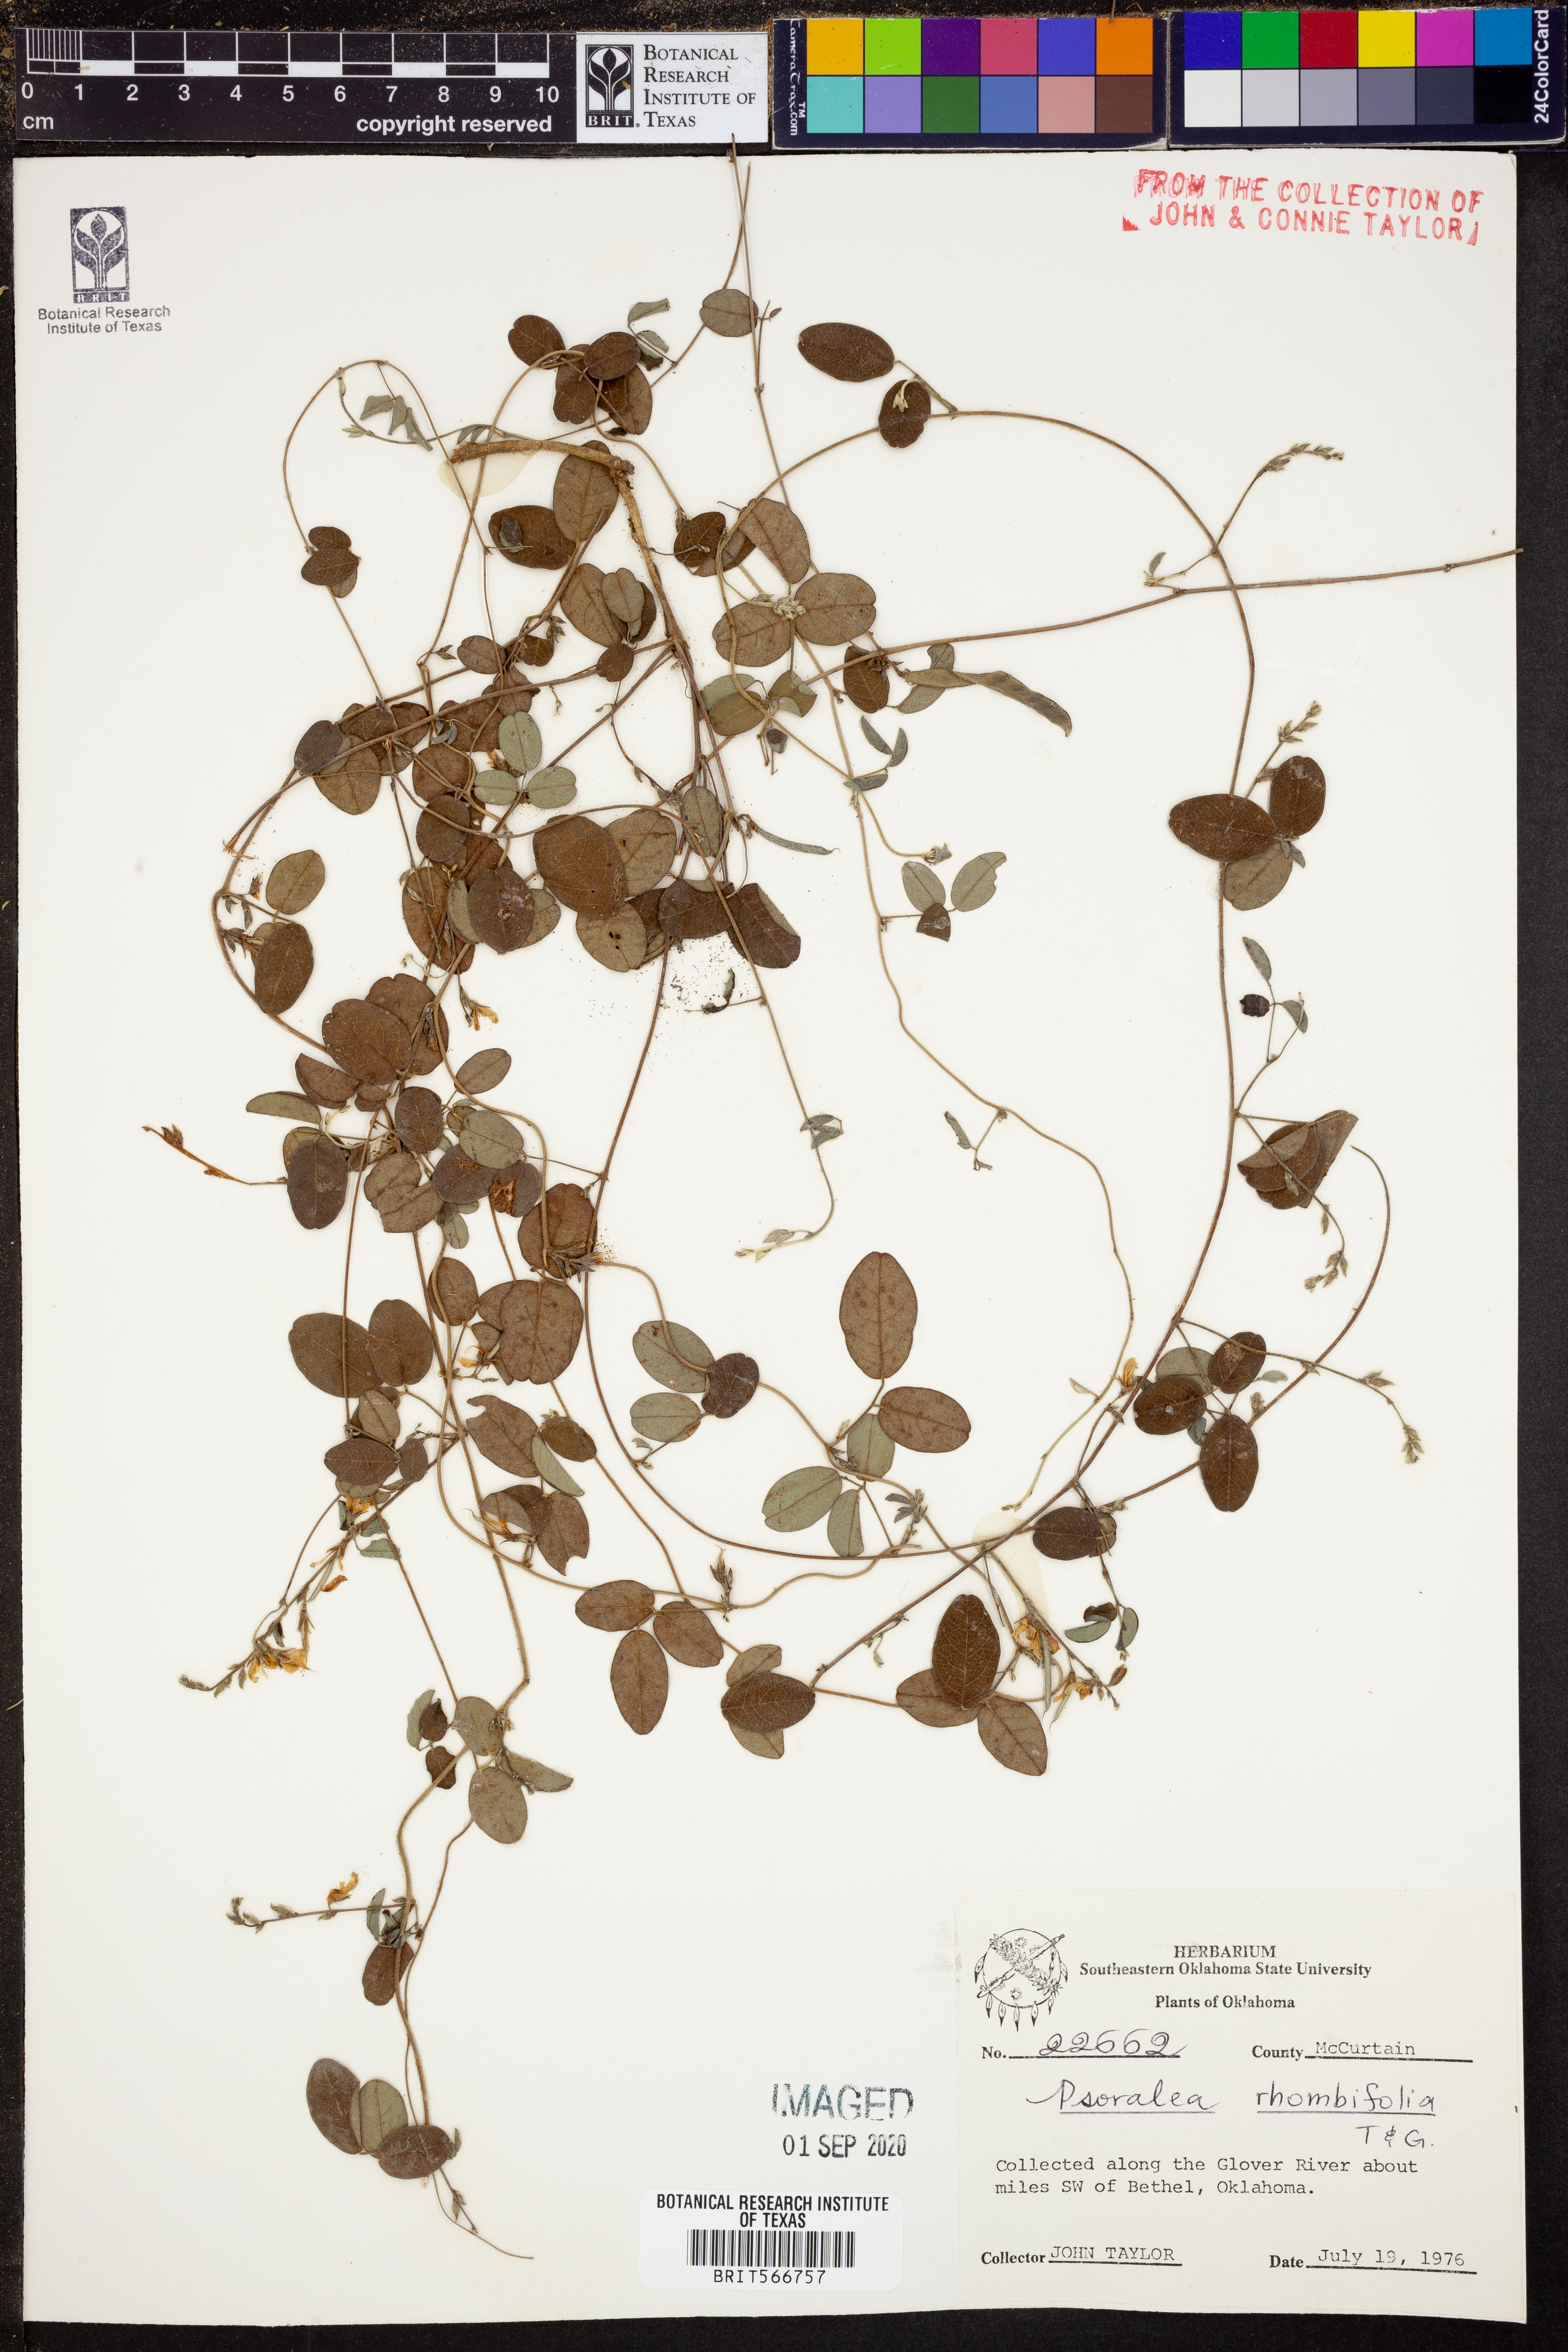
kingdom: Plantae
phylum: Tracheophyta
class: Magnoliopsida
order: Fabales
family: Fabaceae
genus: Pediomelum
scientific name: Pediomelum rhombifolium
